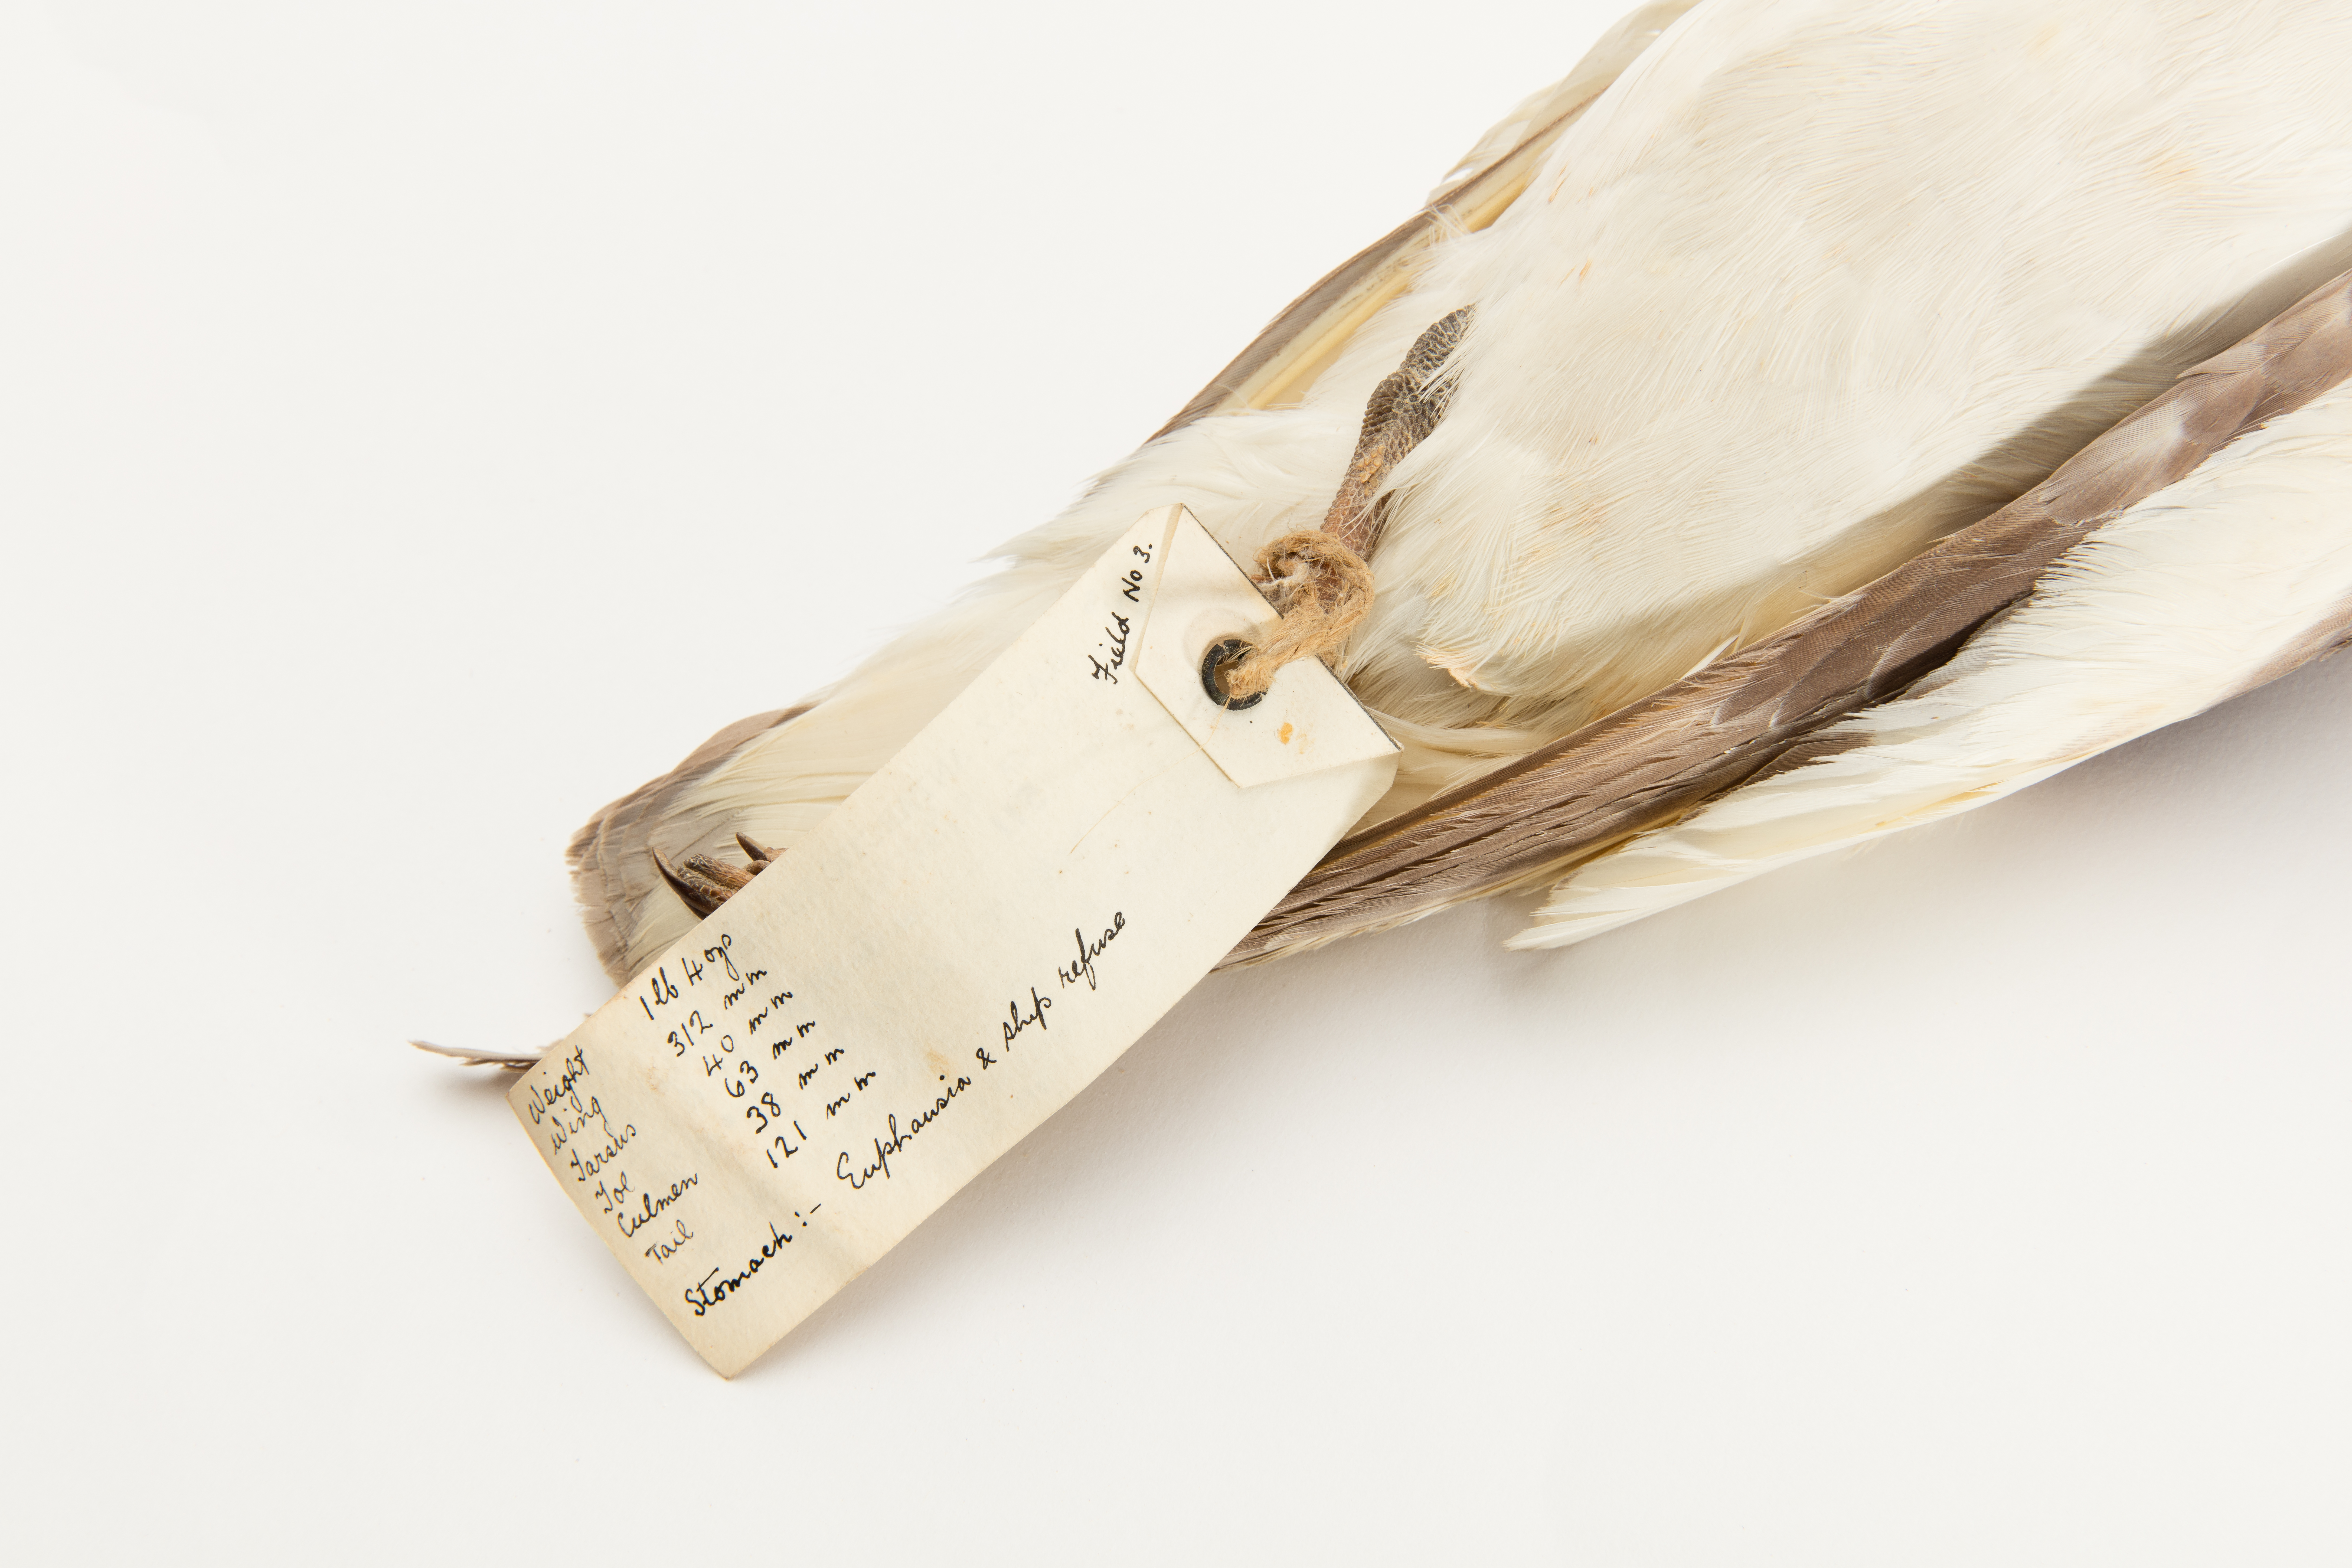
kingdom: Animalia
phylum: Chordata
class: Aves
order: Procellariiformes
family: Procellariidae
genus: Thalassoica
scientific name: Thalassoica antarctica
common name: Antarctic petrel
